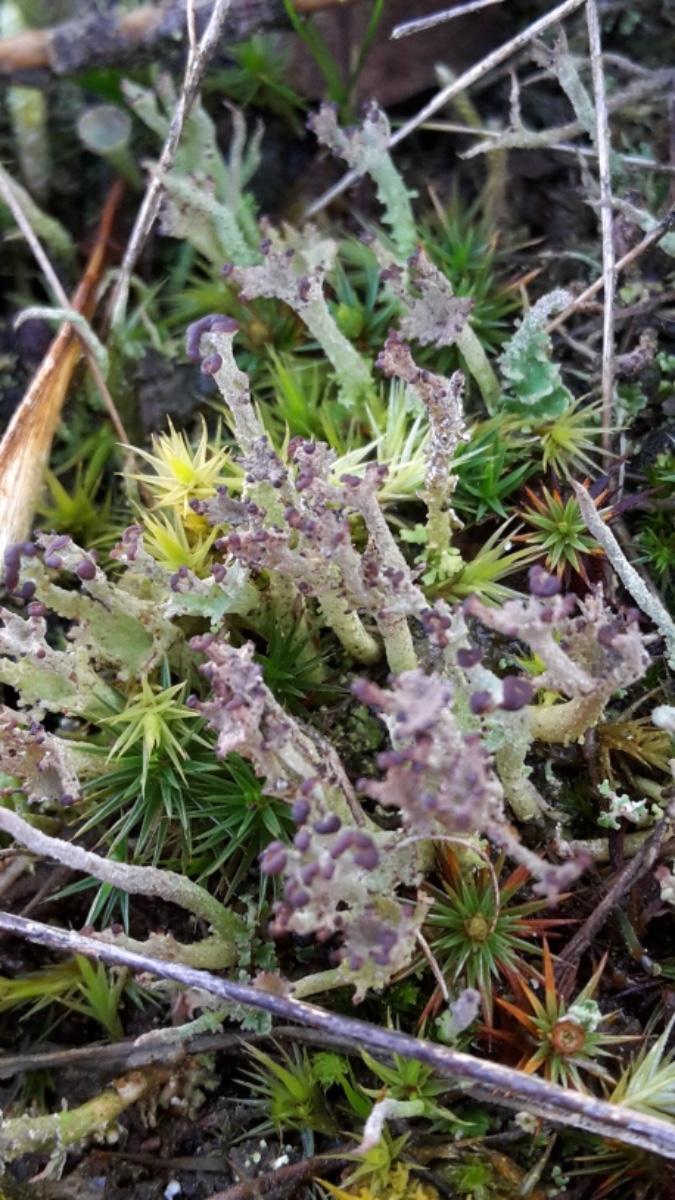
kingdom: Fungi
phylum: Ascomycota
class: Lecanoromycetes
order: Lecanorales
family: Cladoniaceae
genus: Cladonia
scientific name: Cladonia ramulosa
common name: kliddet bægerlav
